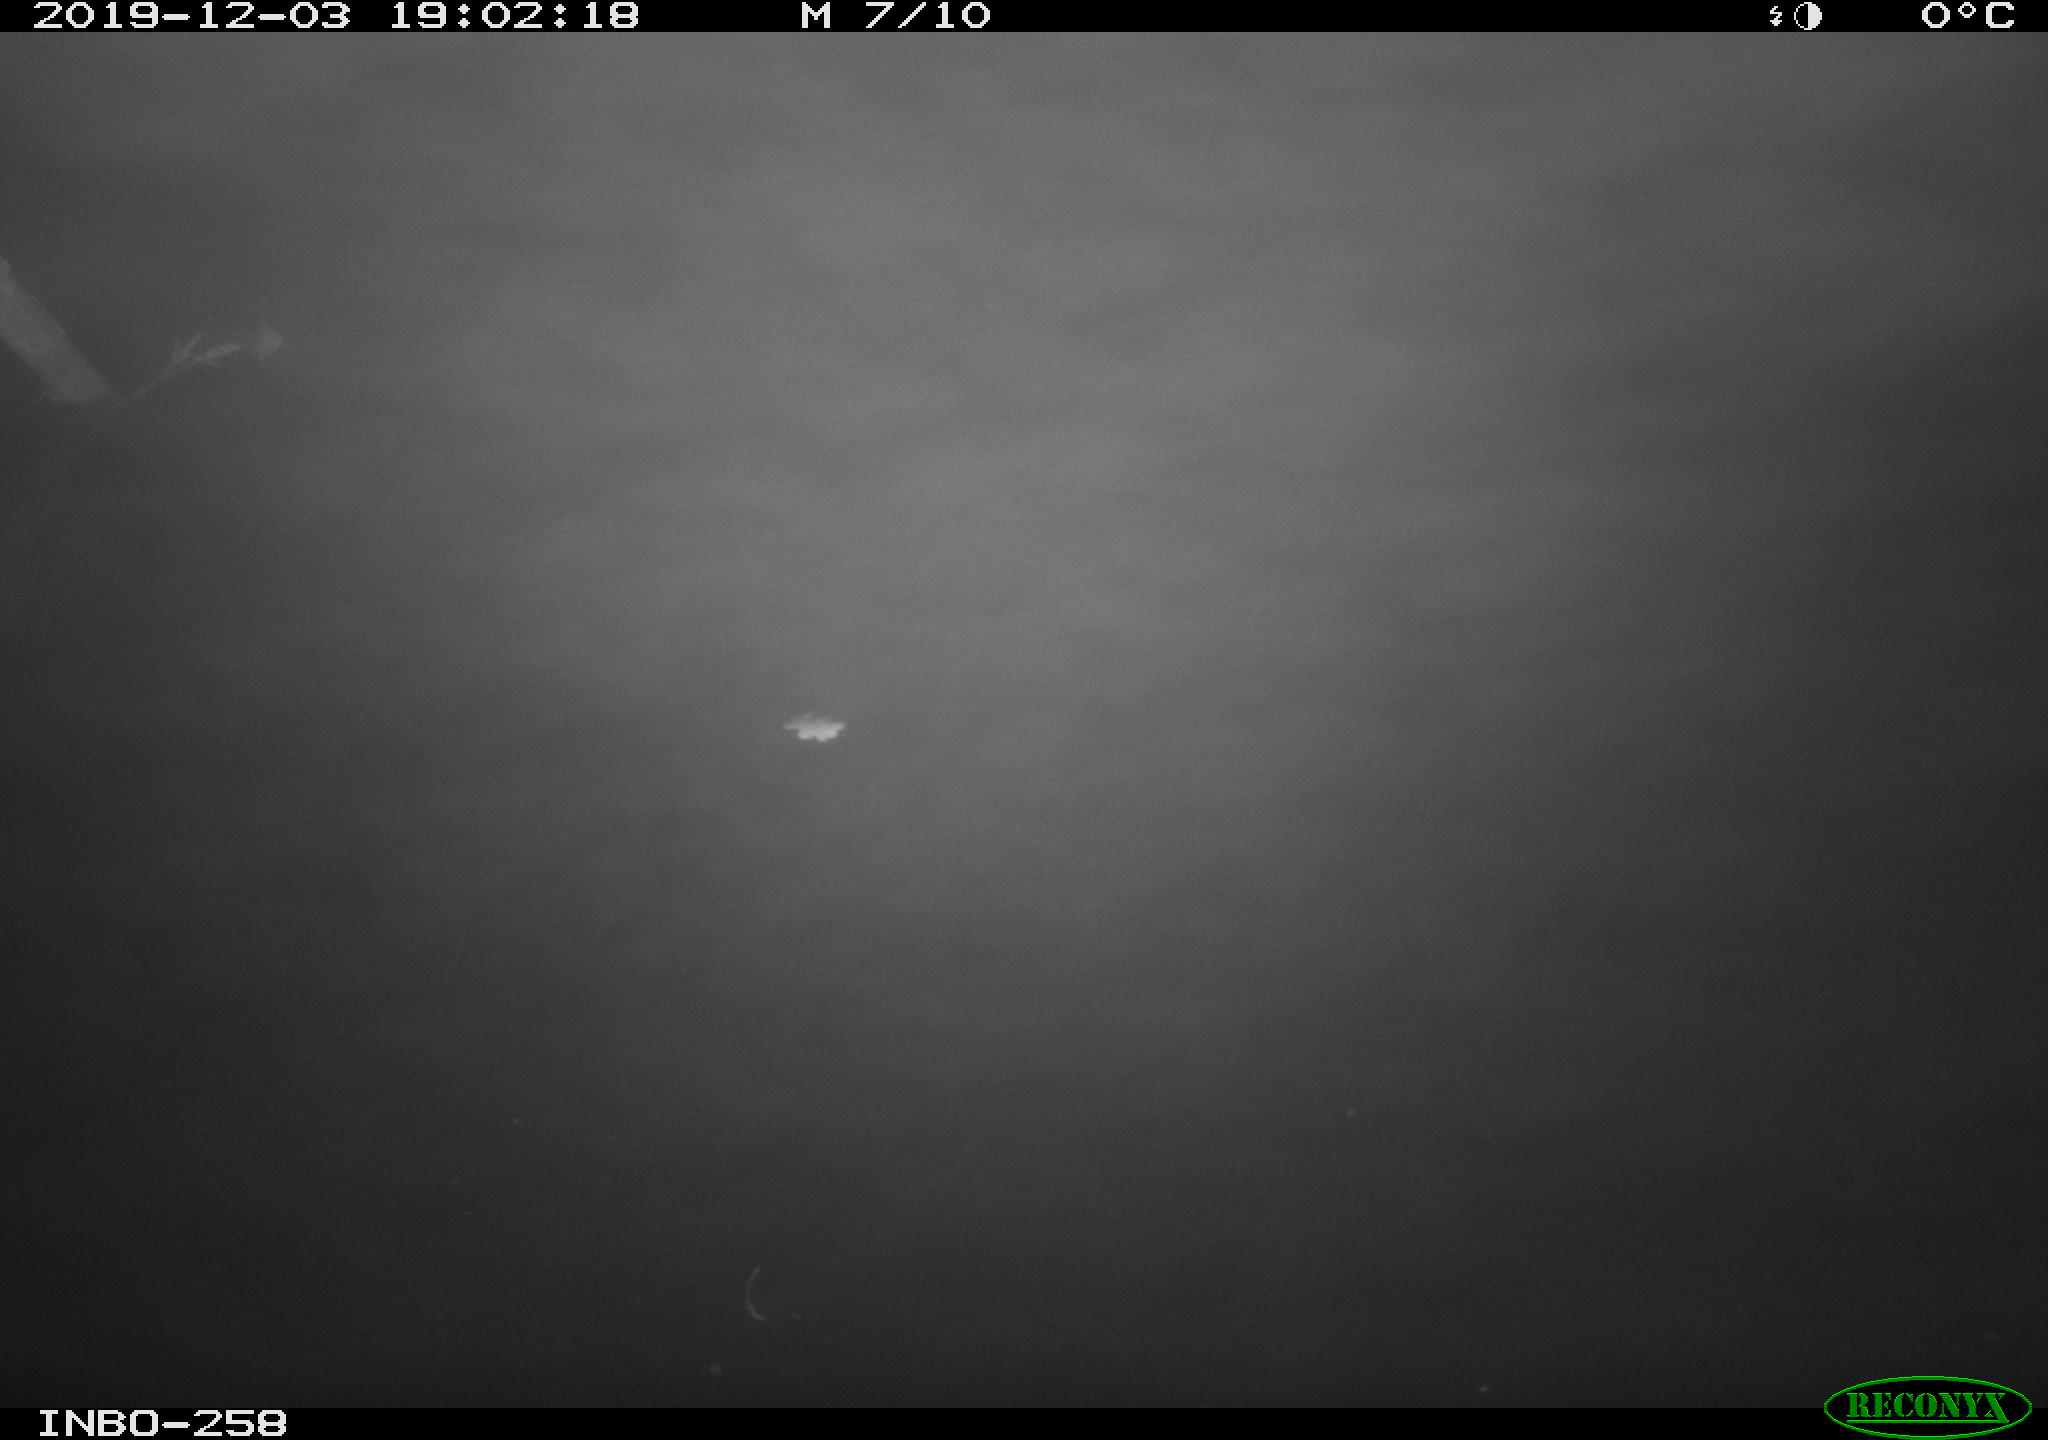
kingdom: Animalia
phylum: Chordata
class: Aves
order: Anseriformes
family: Anatidae
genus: Anas
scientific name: Anas platyrhynchos
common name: Mallard
